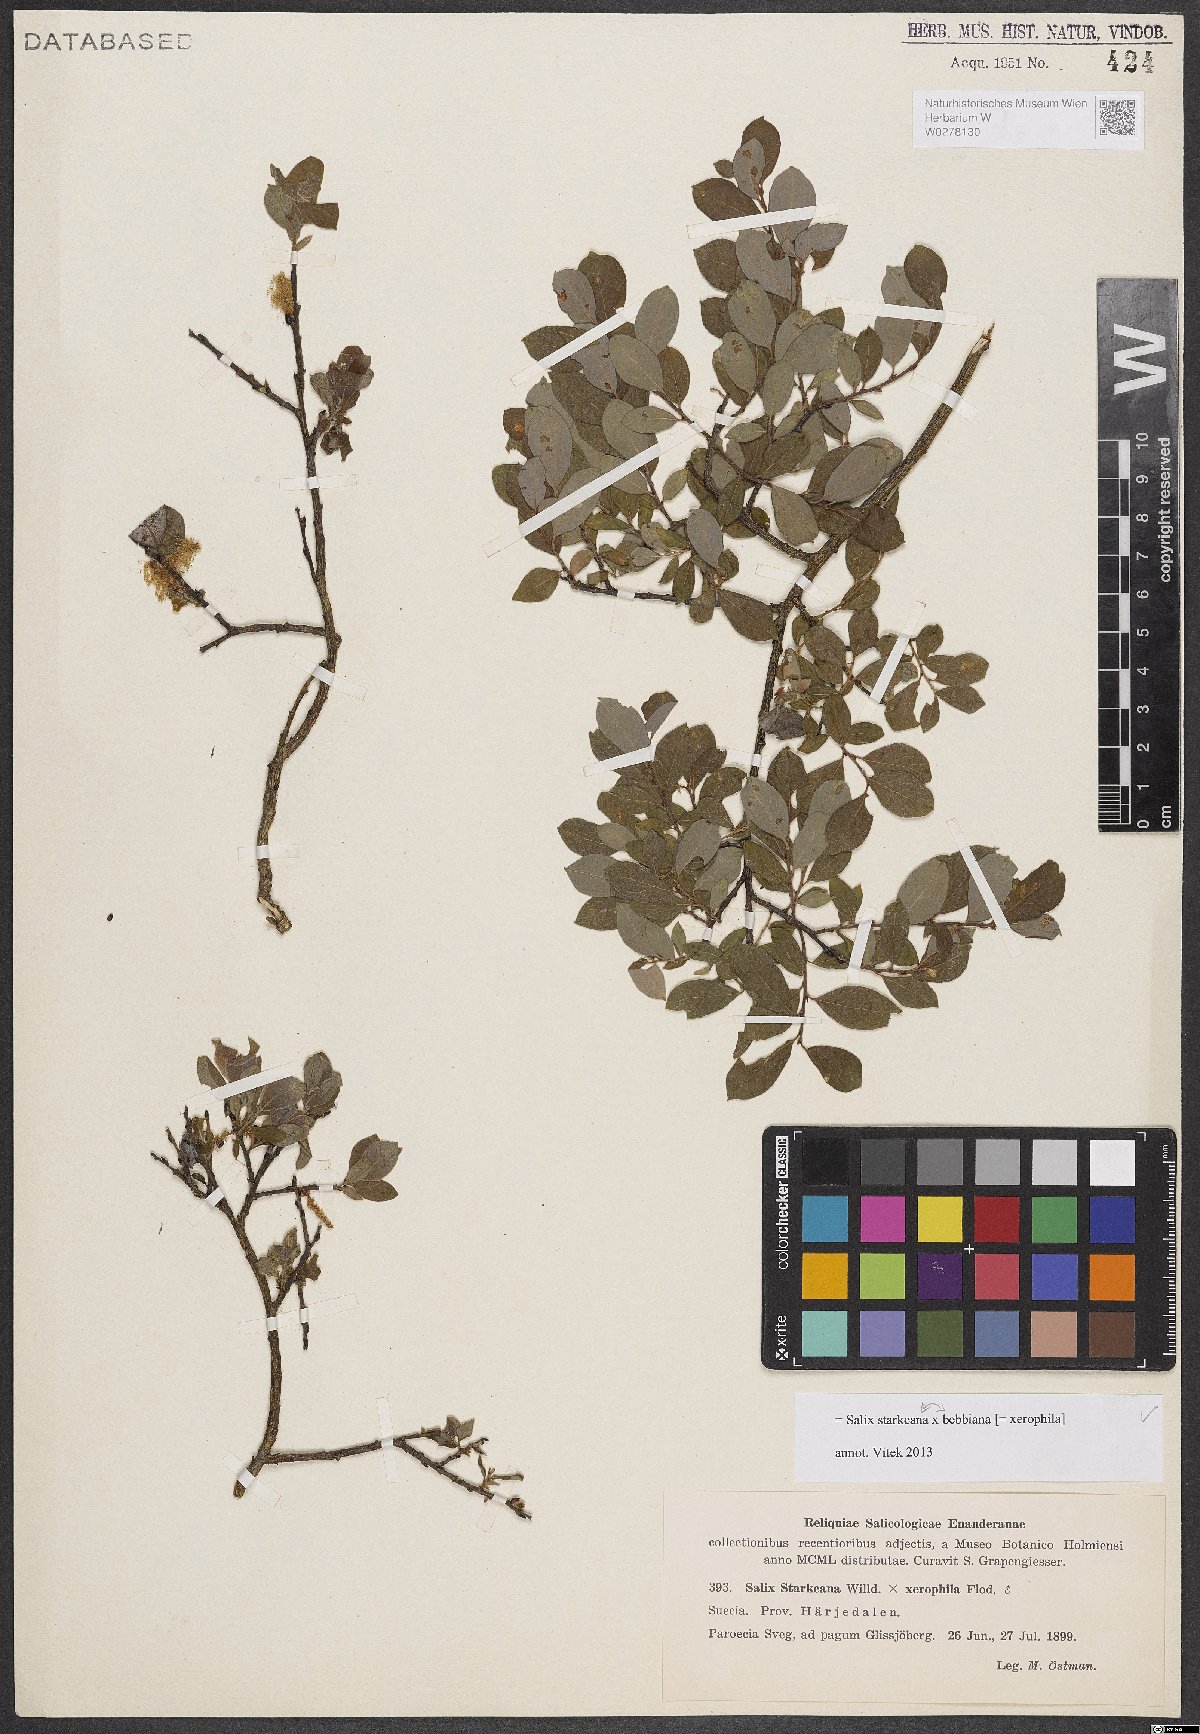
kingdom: Plantae
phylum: Tracheophyta
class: Magnoliopsida
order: Malpighiales
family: Salicaceae
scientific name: Salicaceae
